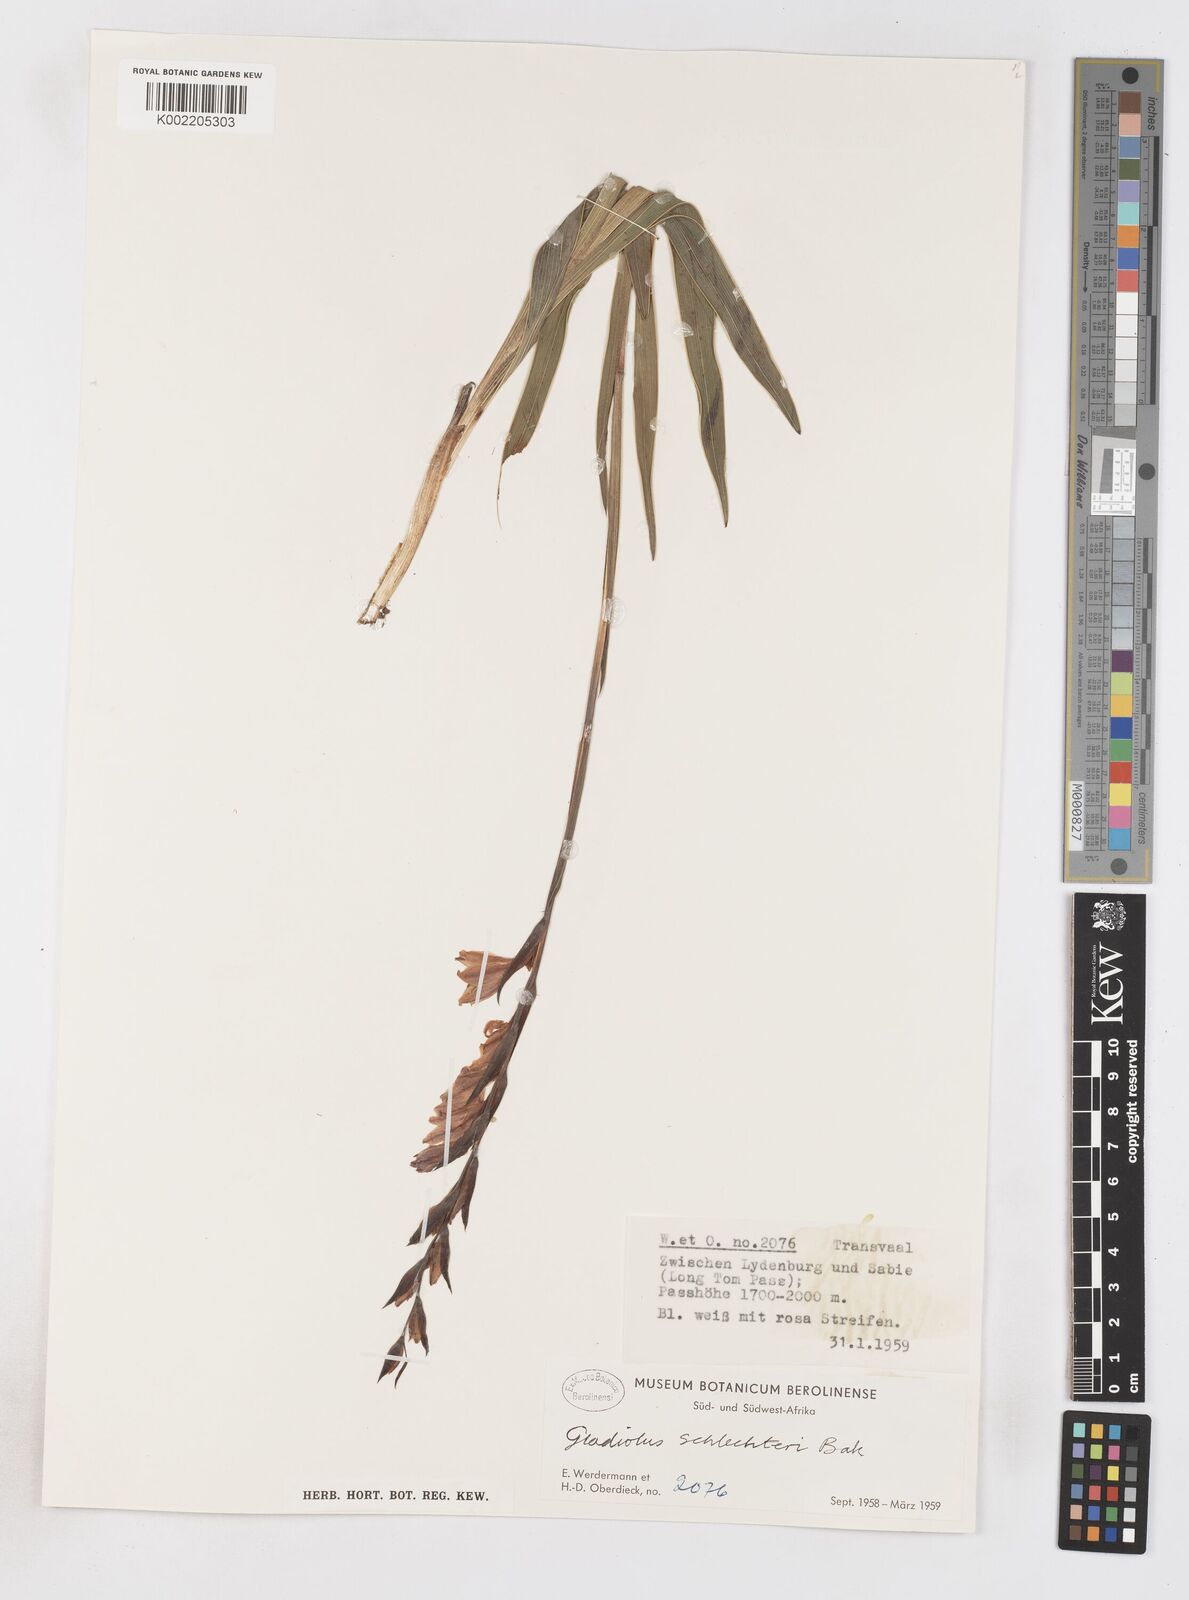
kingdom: Plantae
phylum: Tracheophyta
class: Liliopsida
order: Asparagales
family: Iridaceae
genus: Gladiolus
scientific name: Gladiolus exiguus
